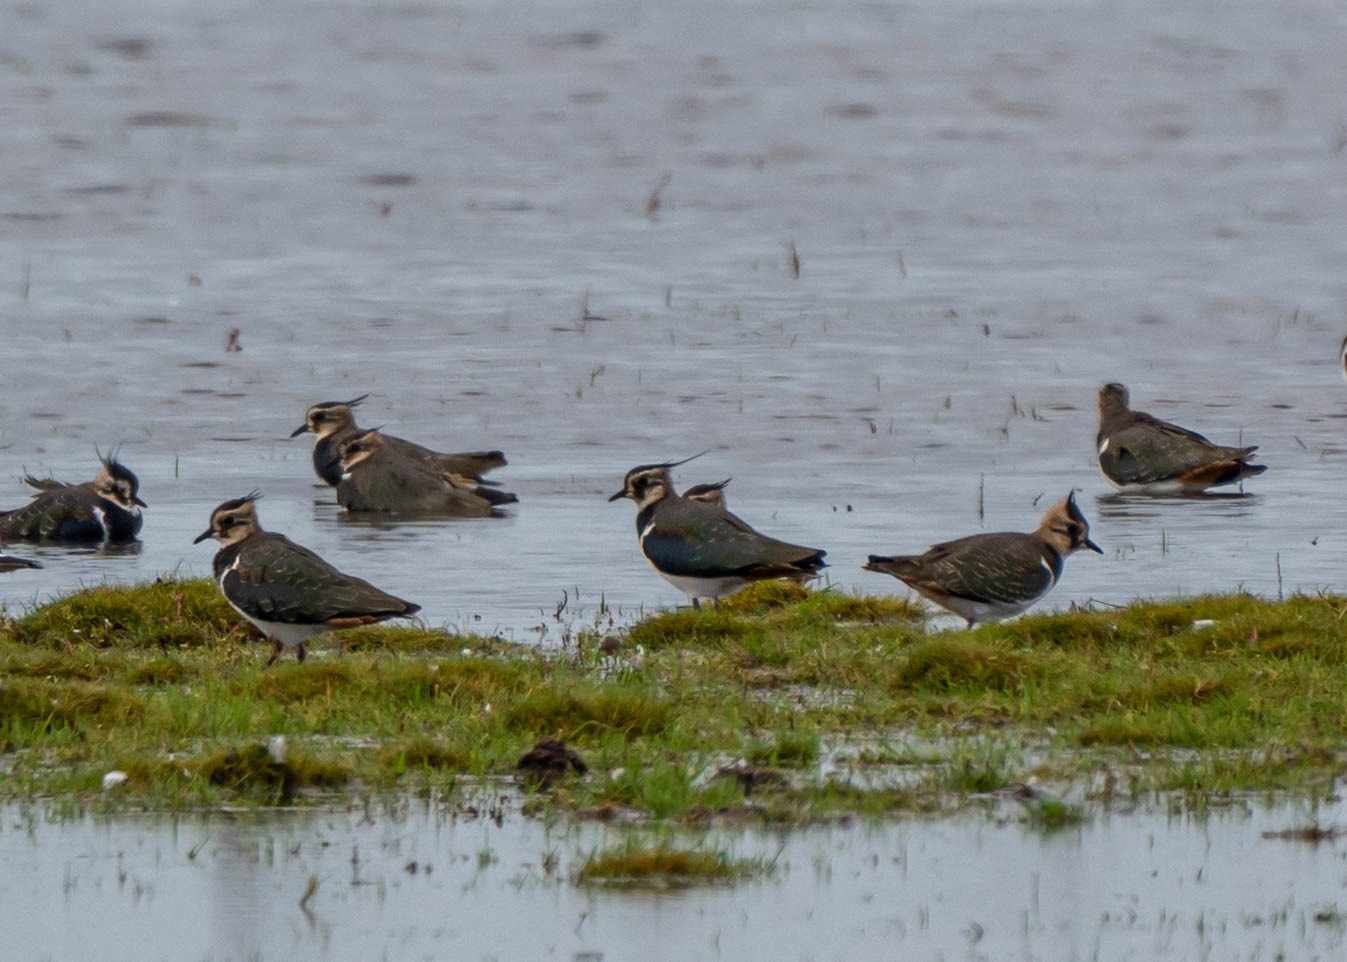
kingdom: Animalia
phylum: Chordata
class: Aves
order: Charadriiformes
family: Charadriidae
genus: Vanellus
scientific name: Vanellus vanellus
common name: Vibe
